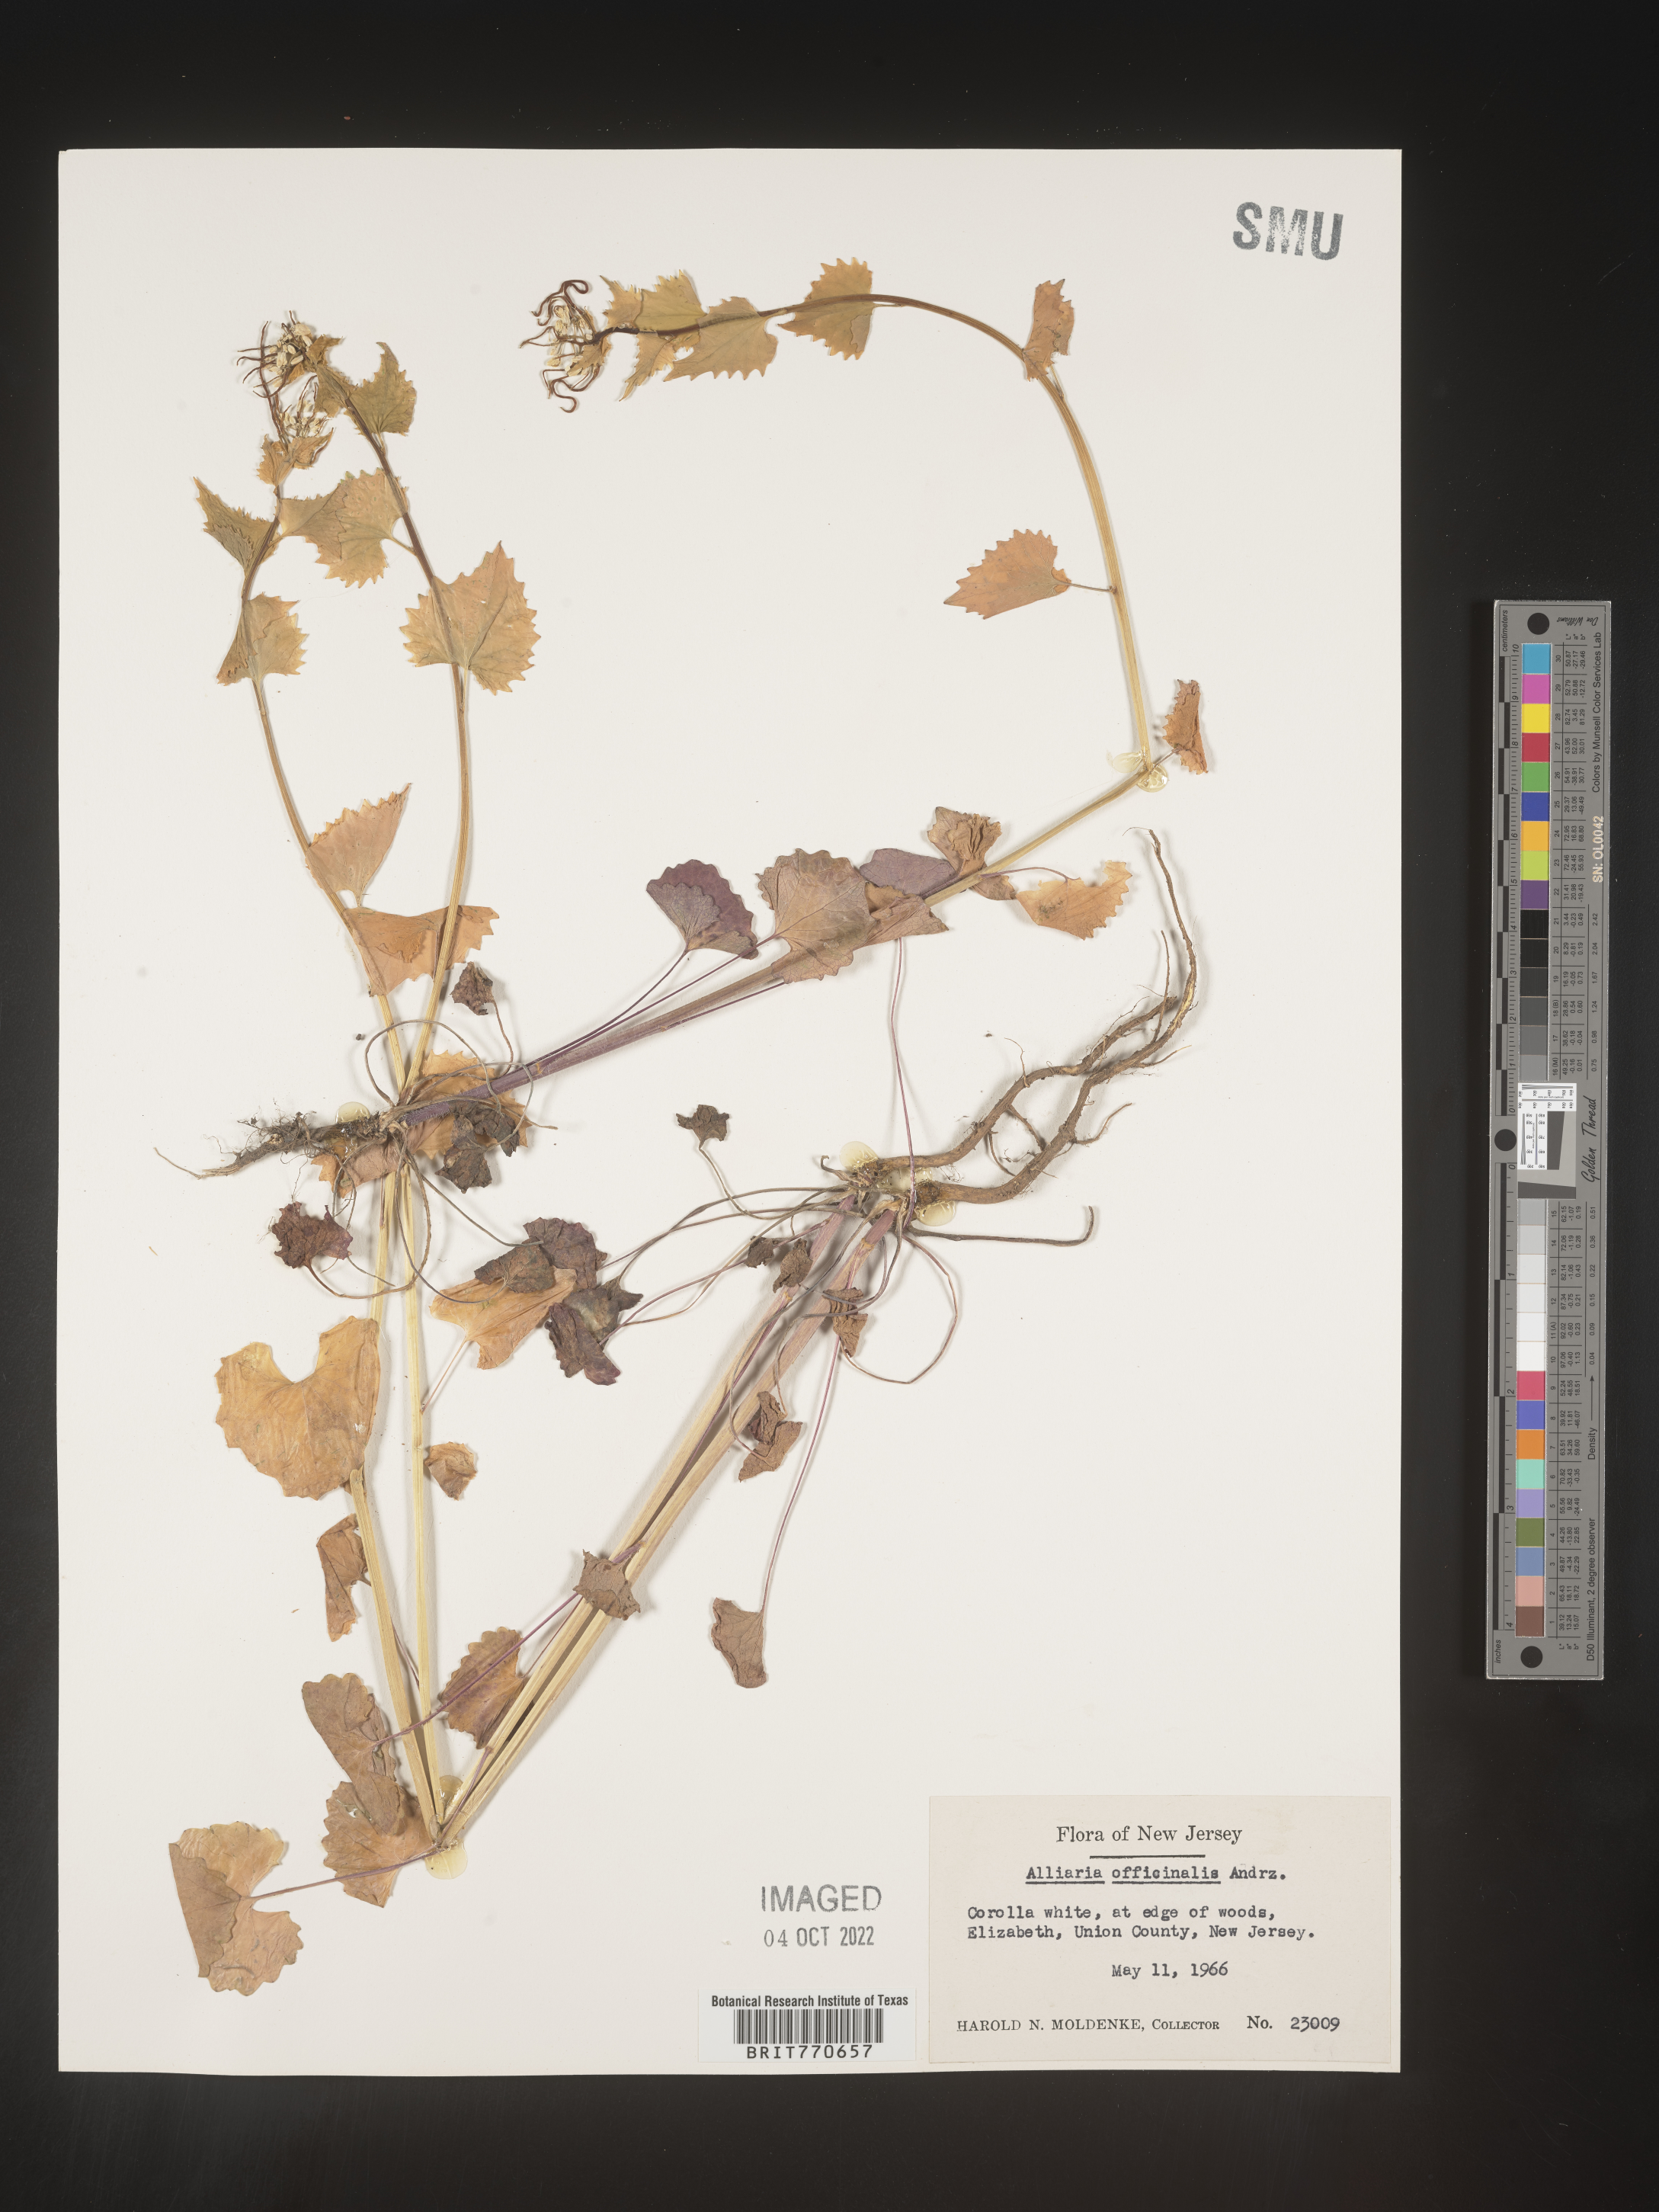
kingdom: Plantae
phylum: Tracheophyta
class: Magnoliopsida
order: Brassicales
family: Brassicaceae
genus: Alliaria
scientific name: Alliaria
